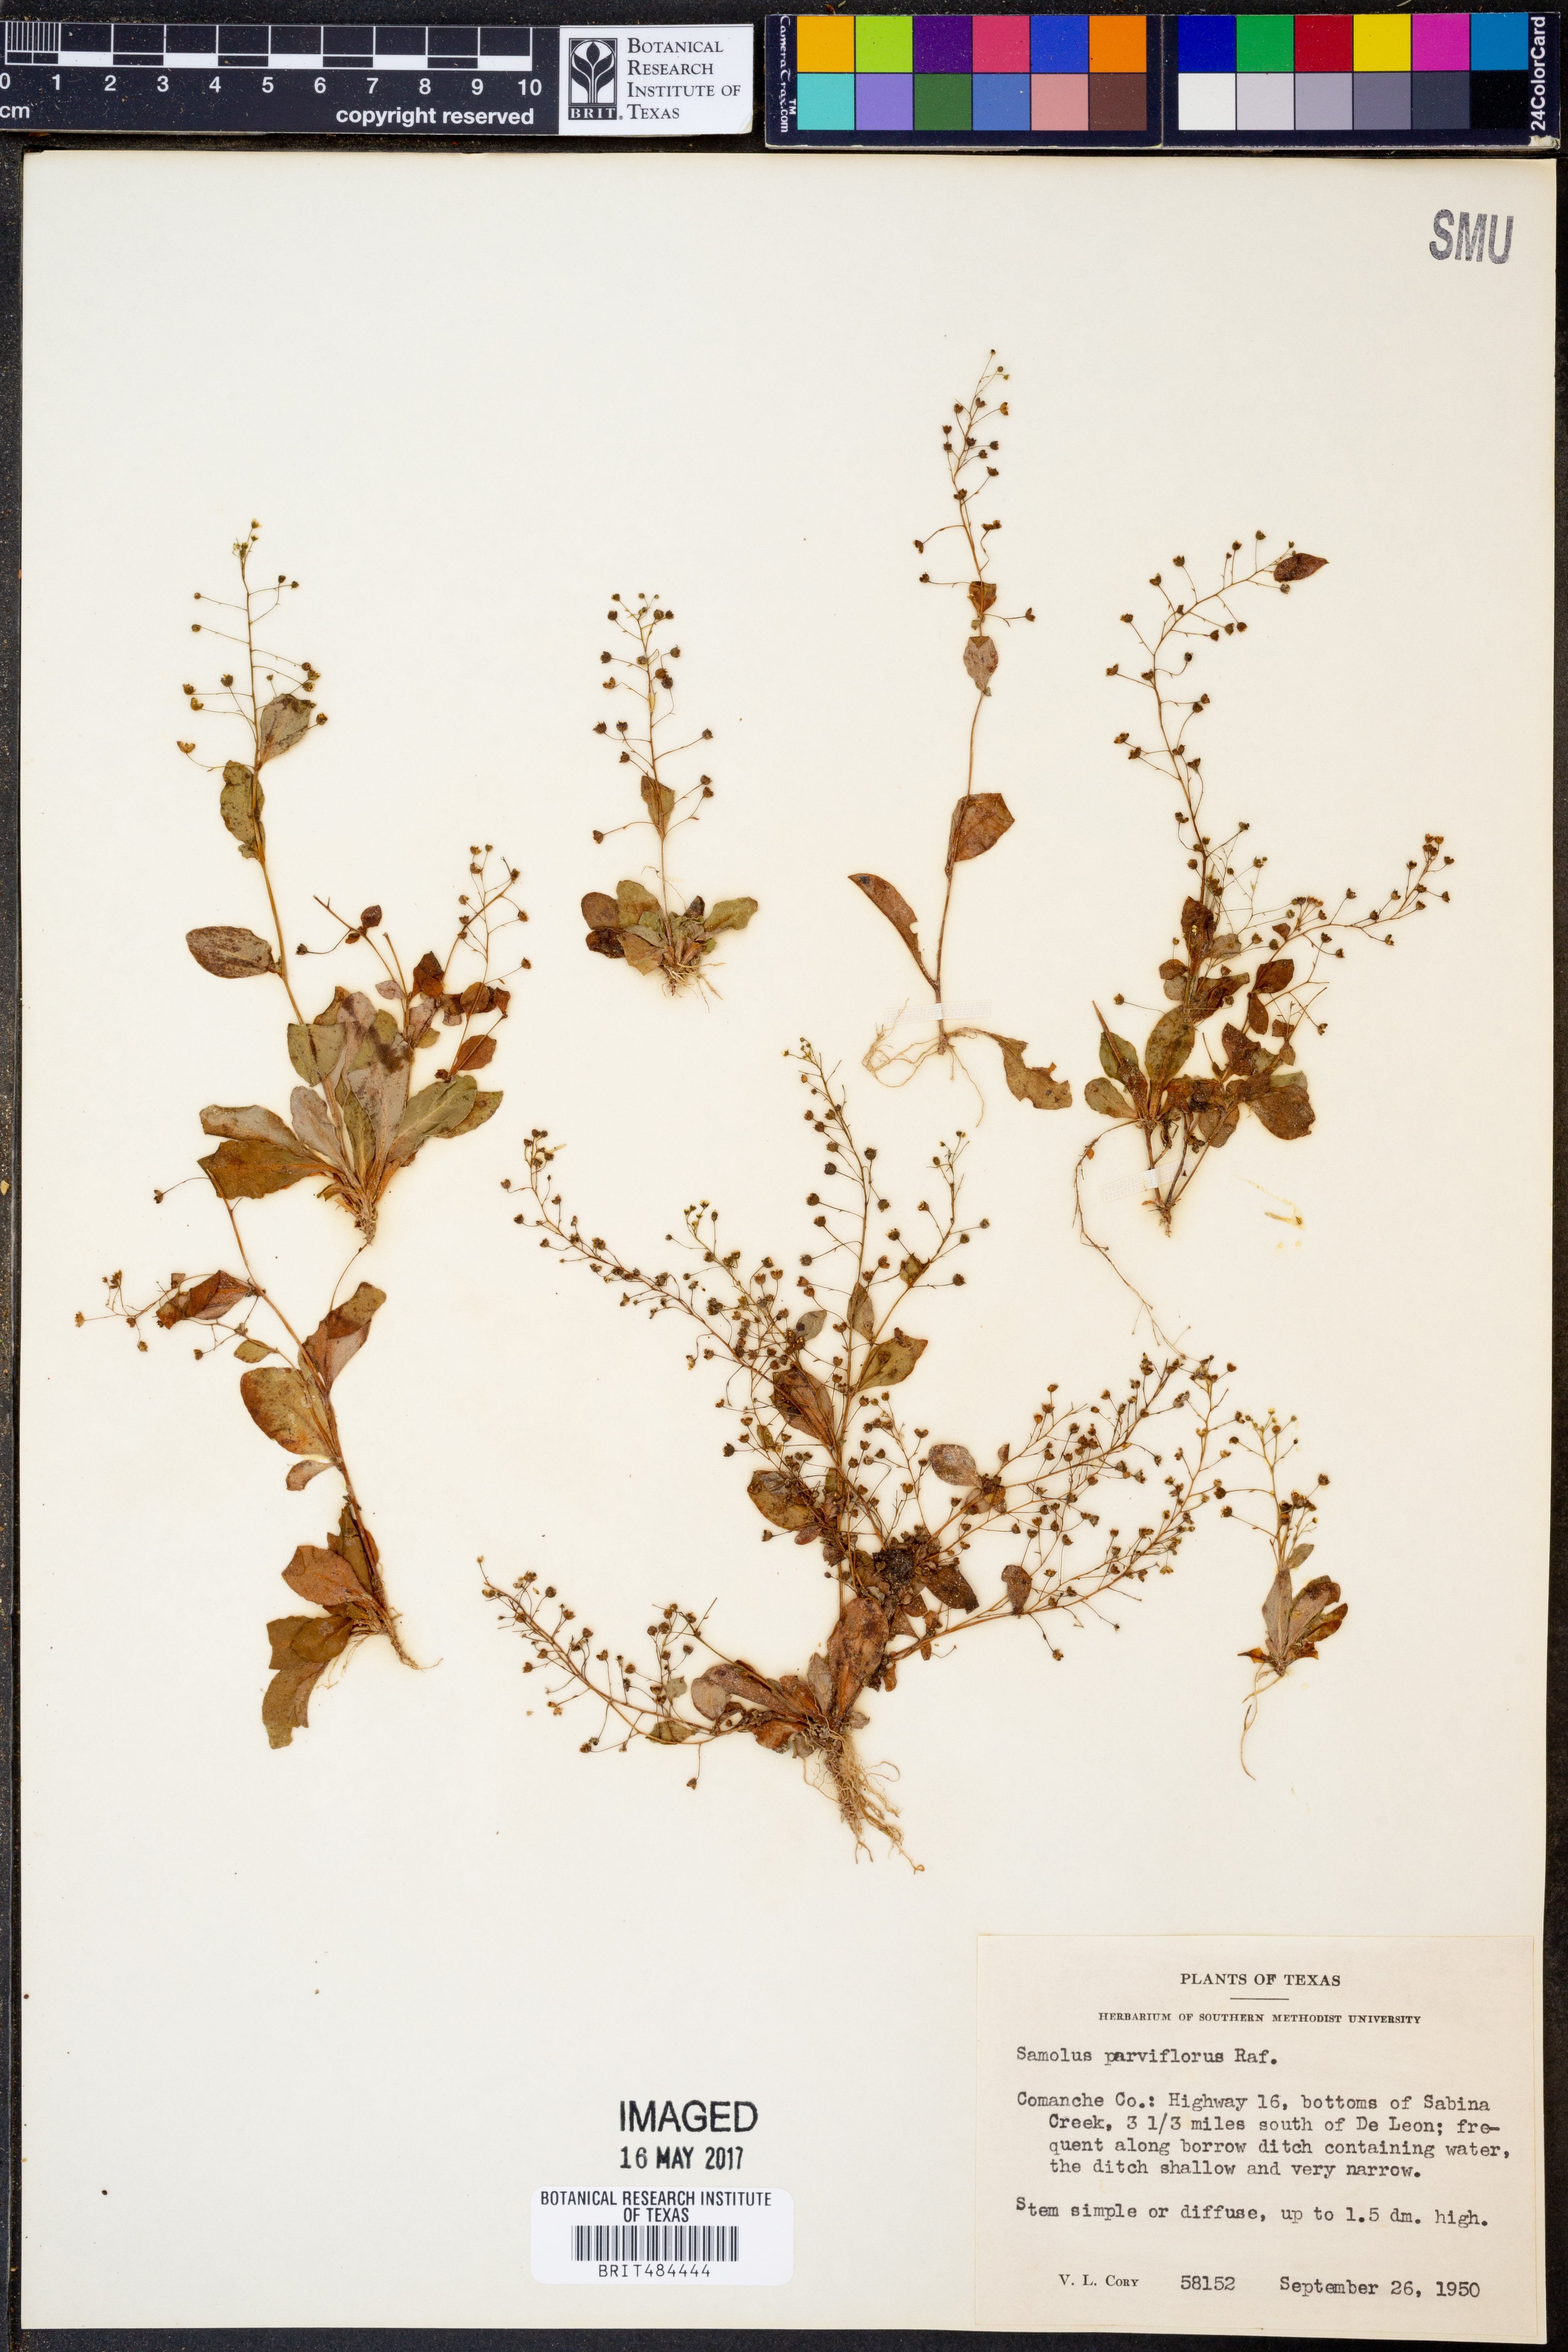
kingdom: Plantae
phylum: Tracheophyta
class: Magnoliopsida
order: Ericales
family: Primulaceae
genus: Samolus
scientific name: Samolus parviflorus
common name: False water pimpernel
